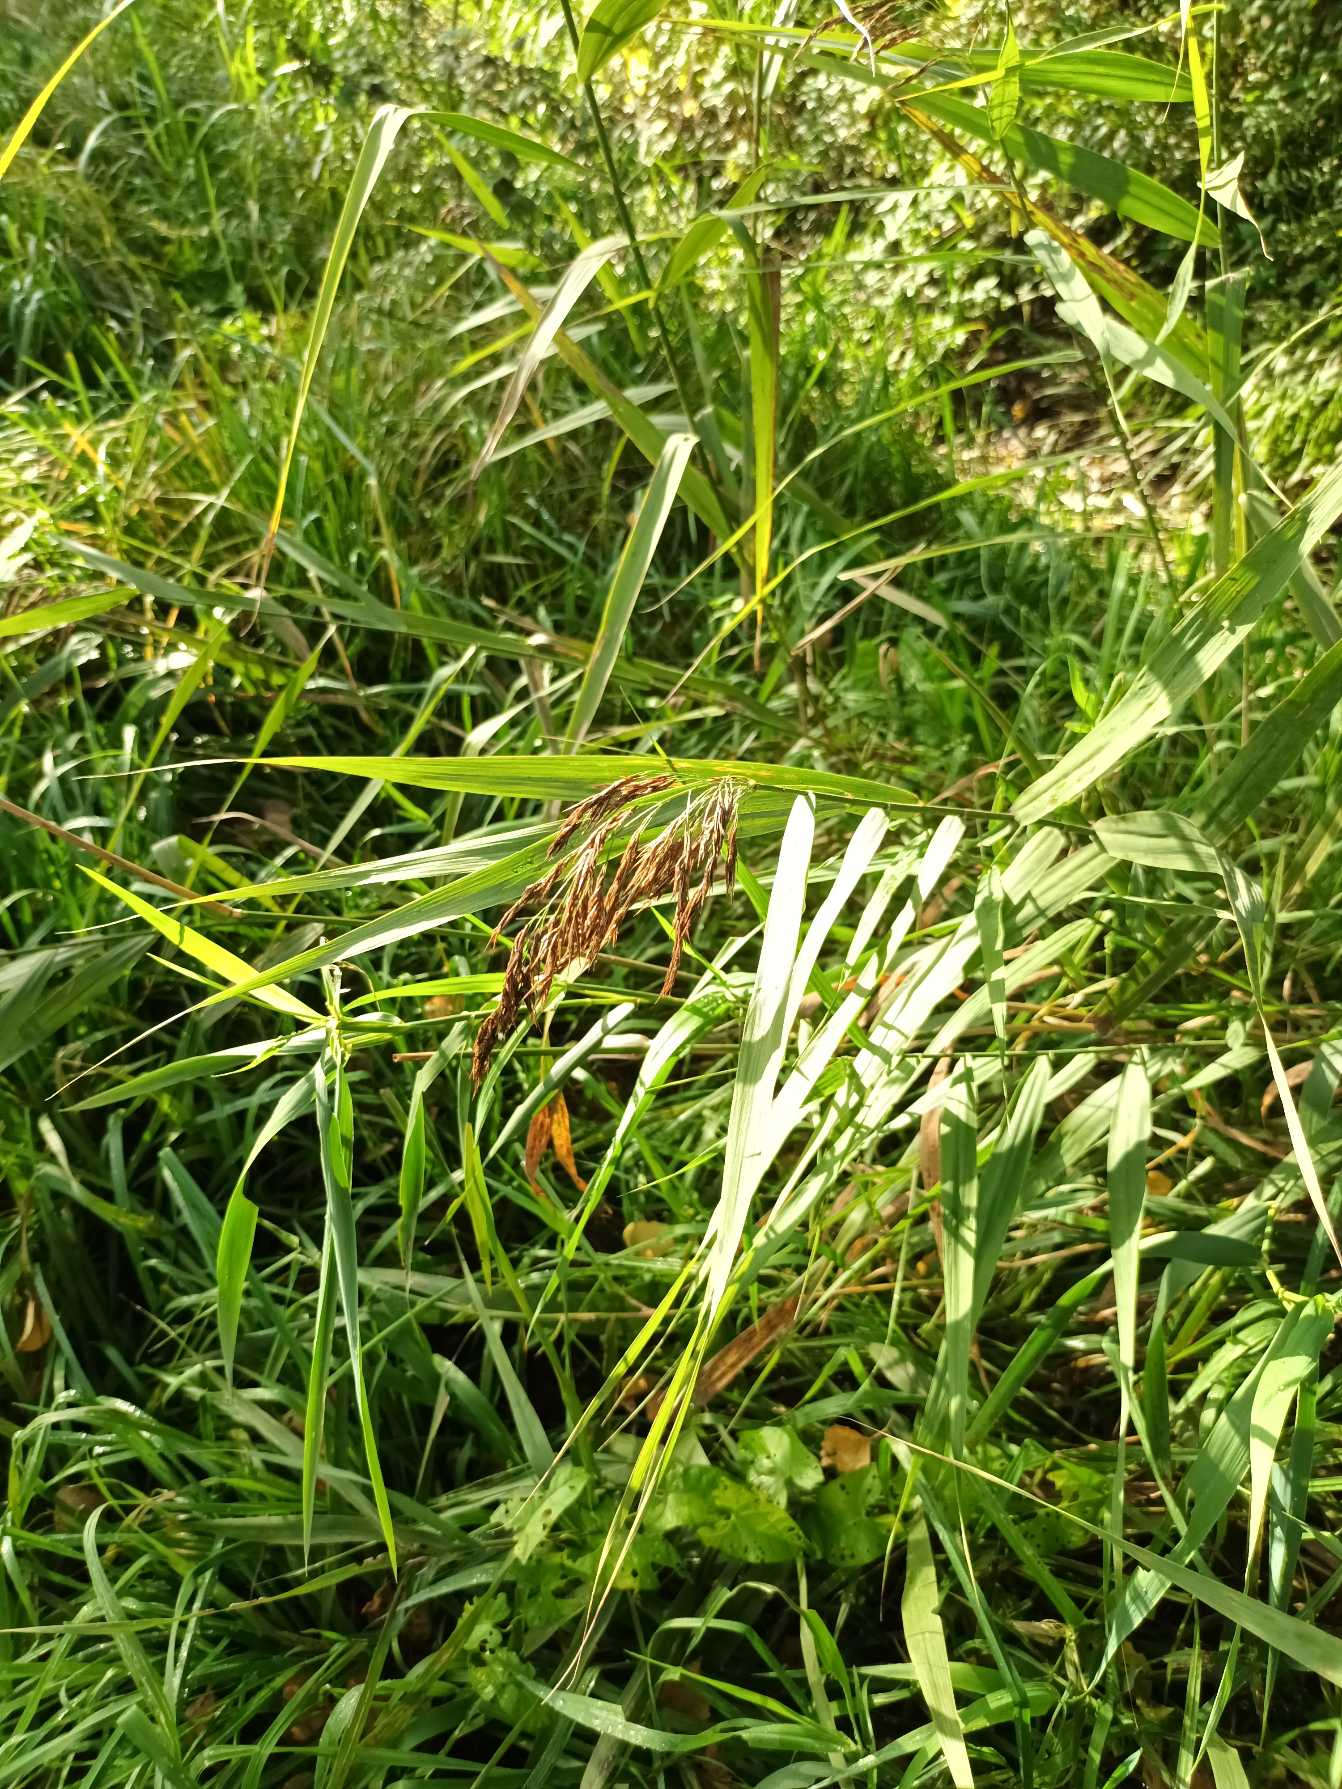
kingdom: Plantae
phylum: Tracheophyta
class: Liliopsida
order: Poales
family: Poaceae
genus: Phragmites
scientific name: Phragmites australis
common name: Tagrør
